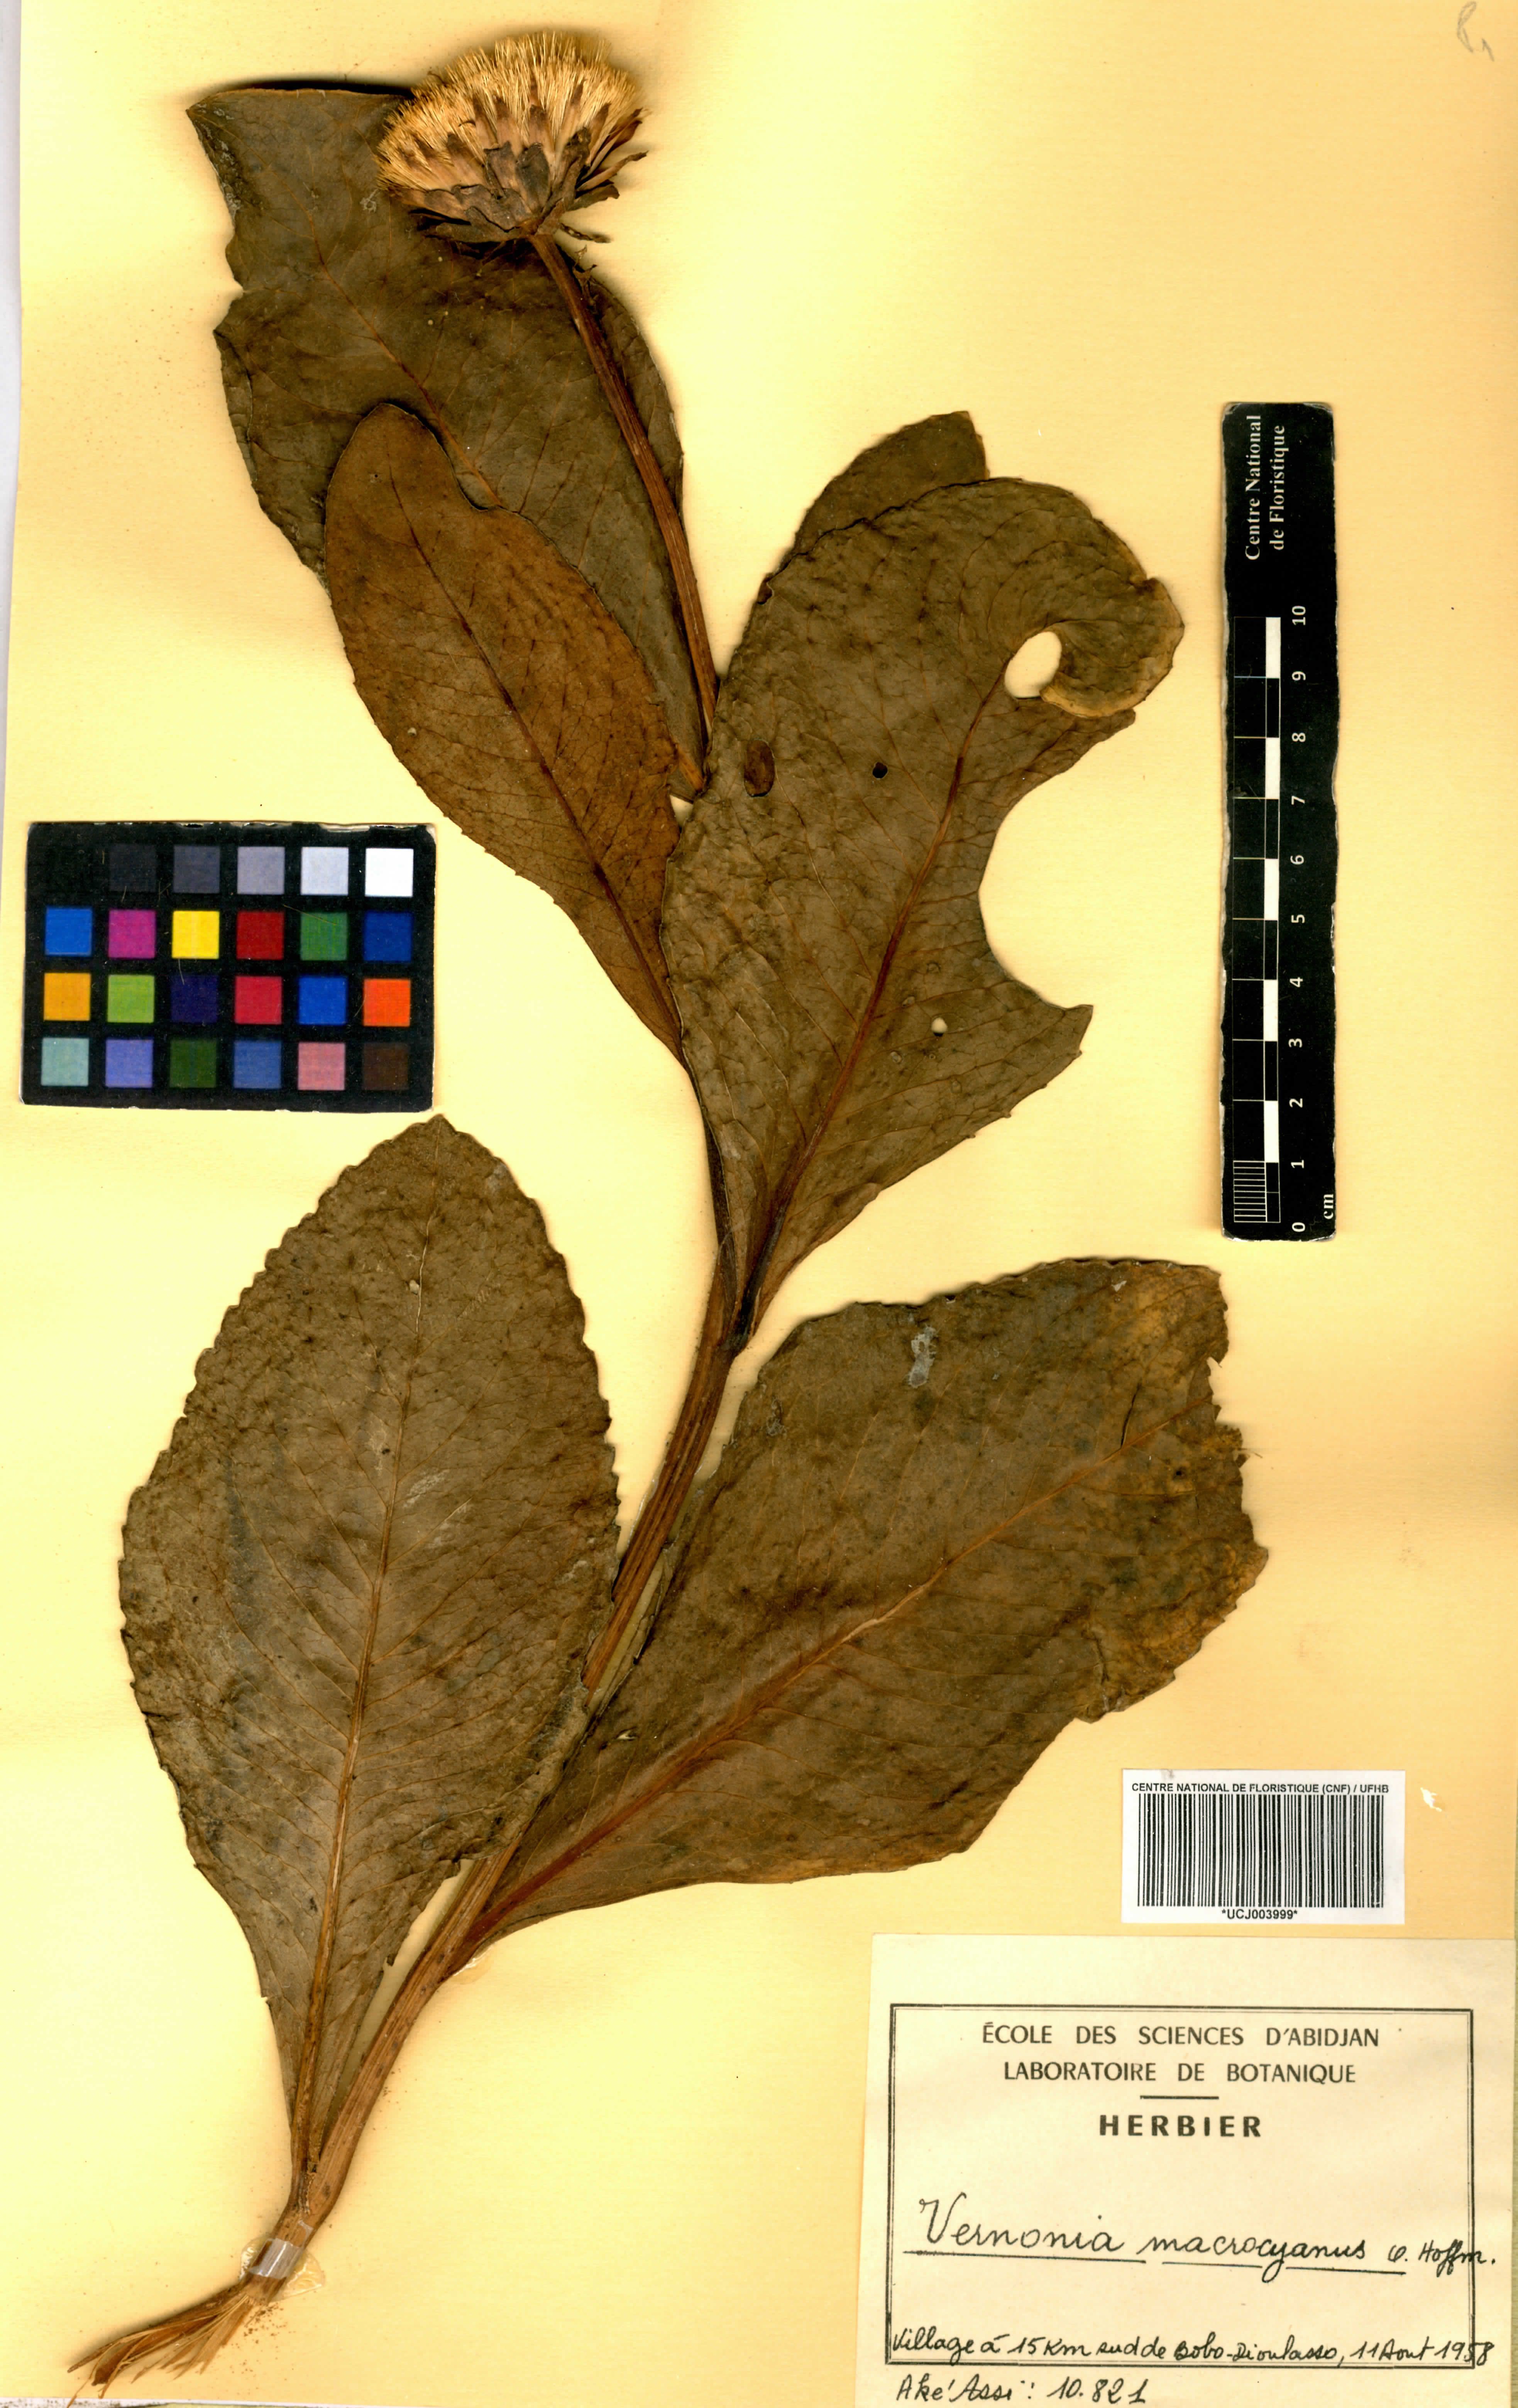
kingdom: Plantae
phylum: Tracheophyta
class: Magnoliopsida
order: Asterales
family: Asteraceae
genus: Linzia
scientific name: Linzia gerberiformis
